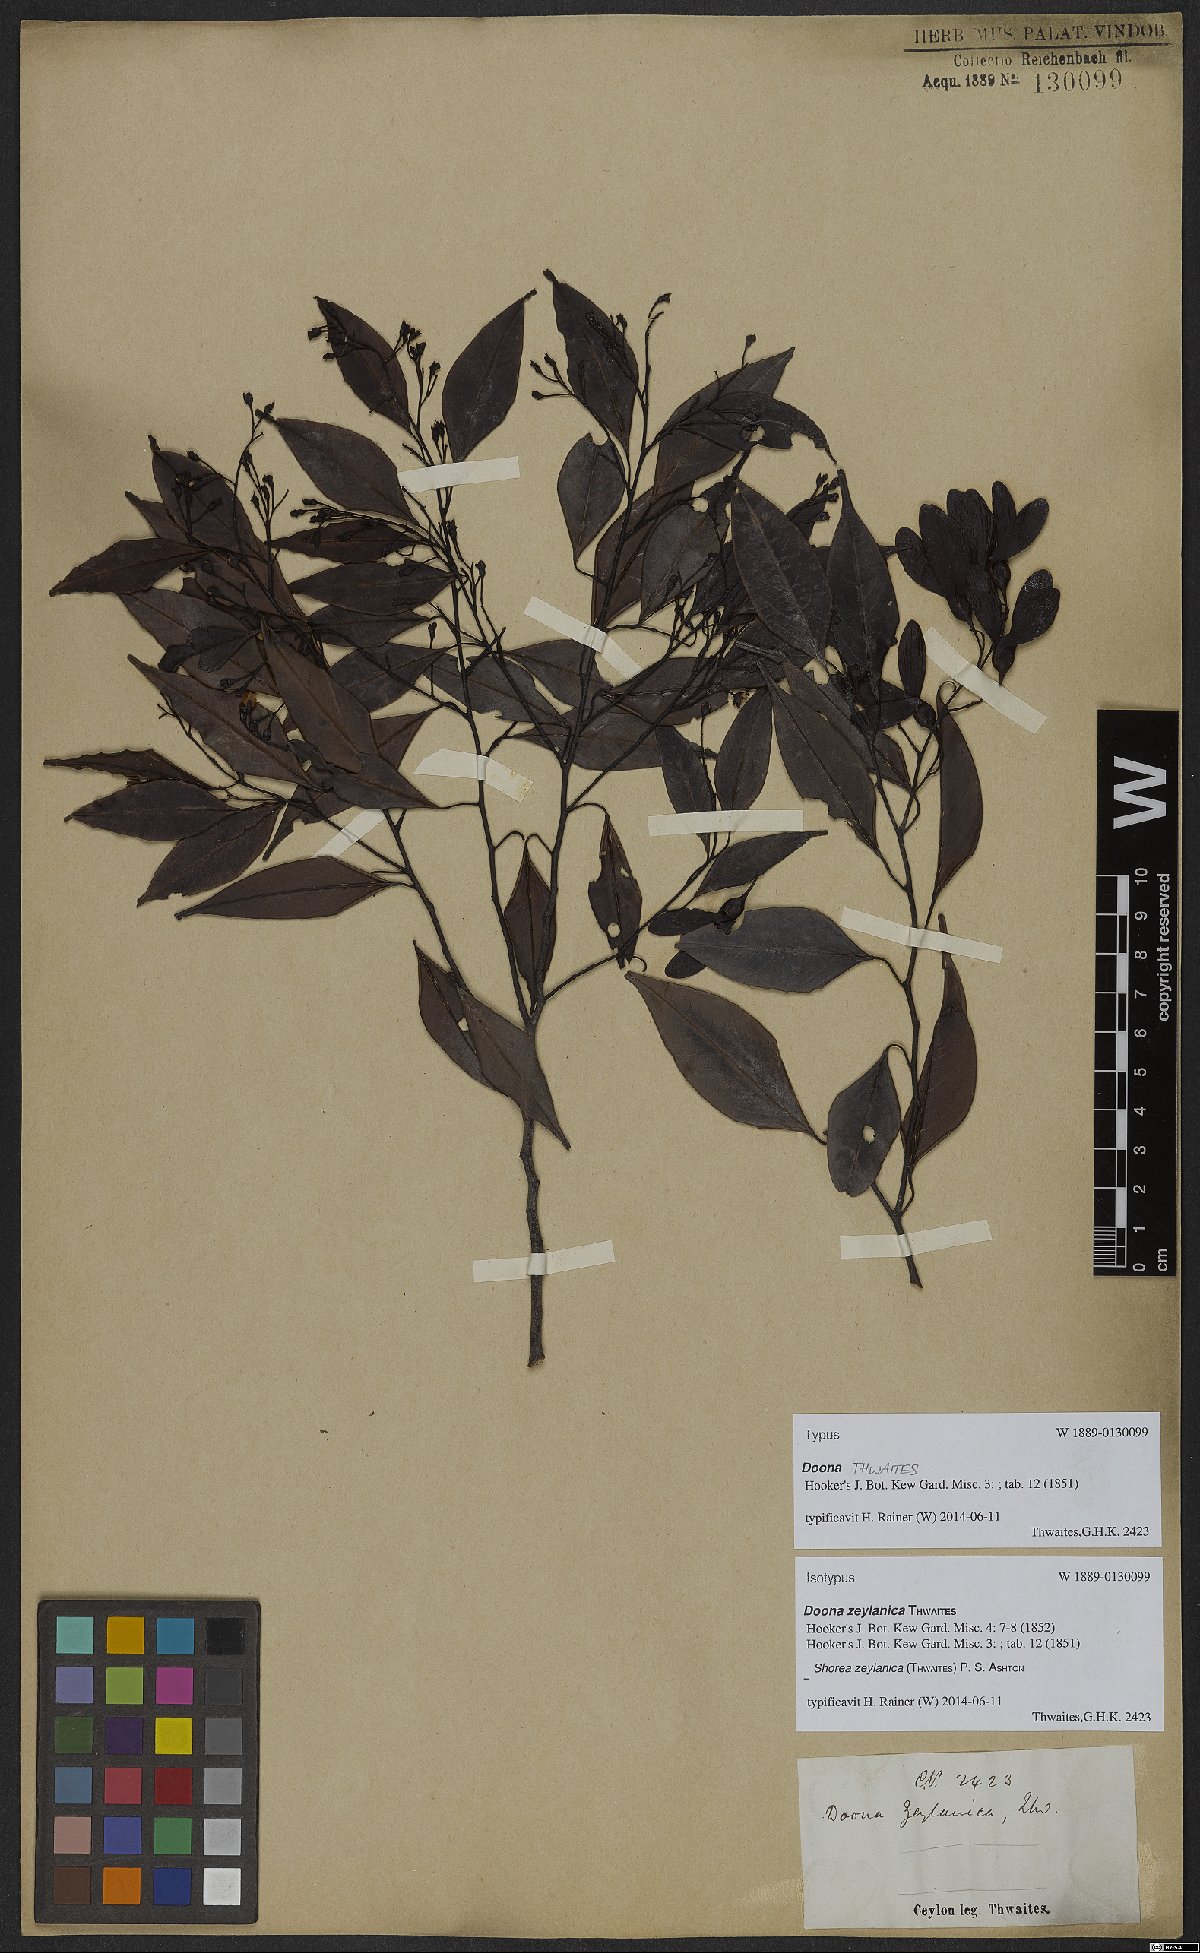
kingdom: Plantae
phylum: Tracheophyta
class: Magnoliopsida
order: Malvales
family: Dipterocarpaceae
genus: Doona
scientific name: Doona zeylanica
